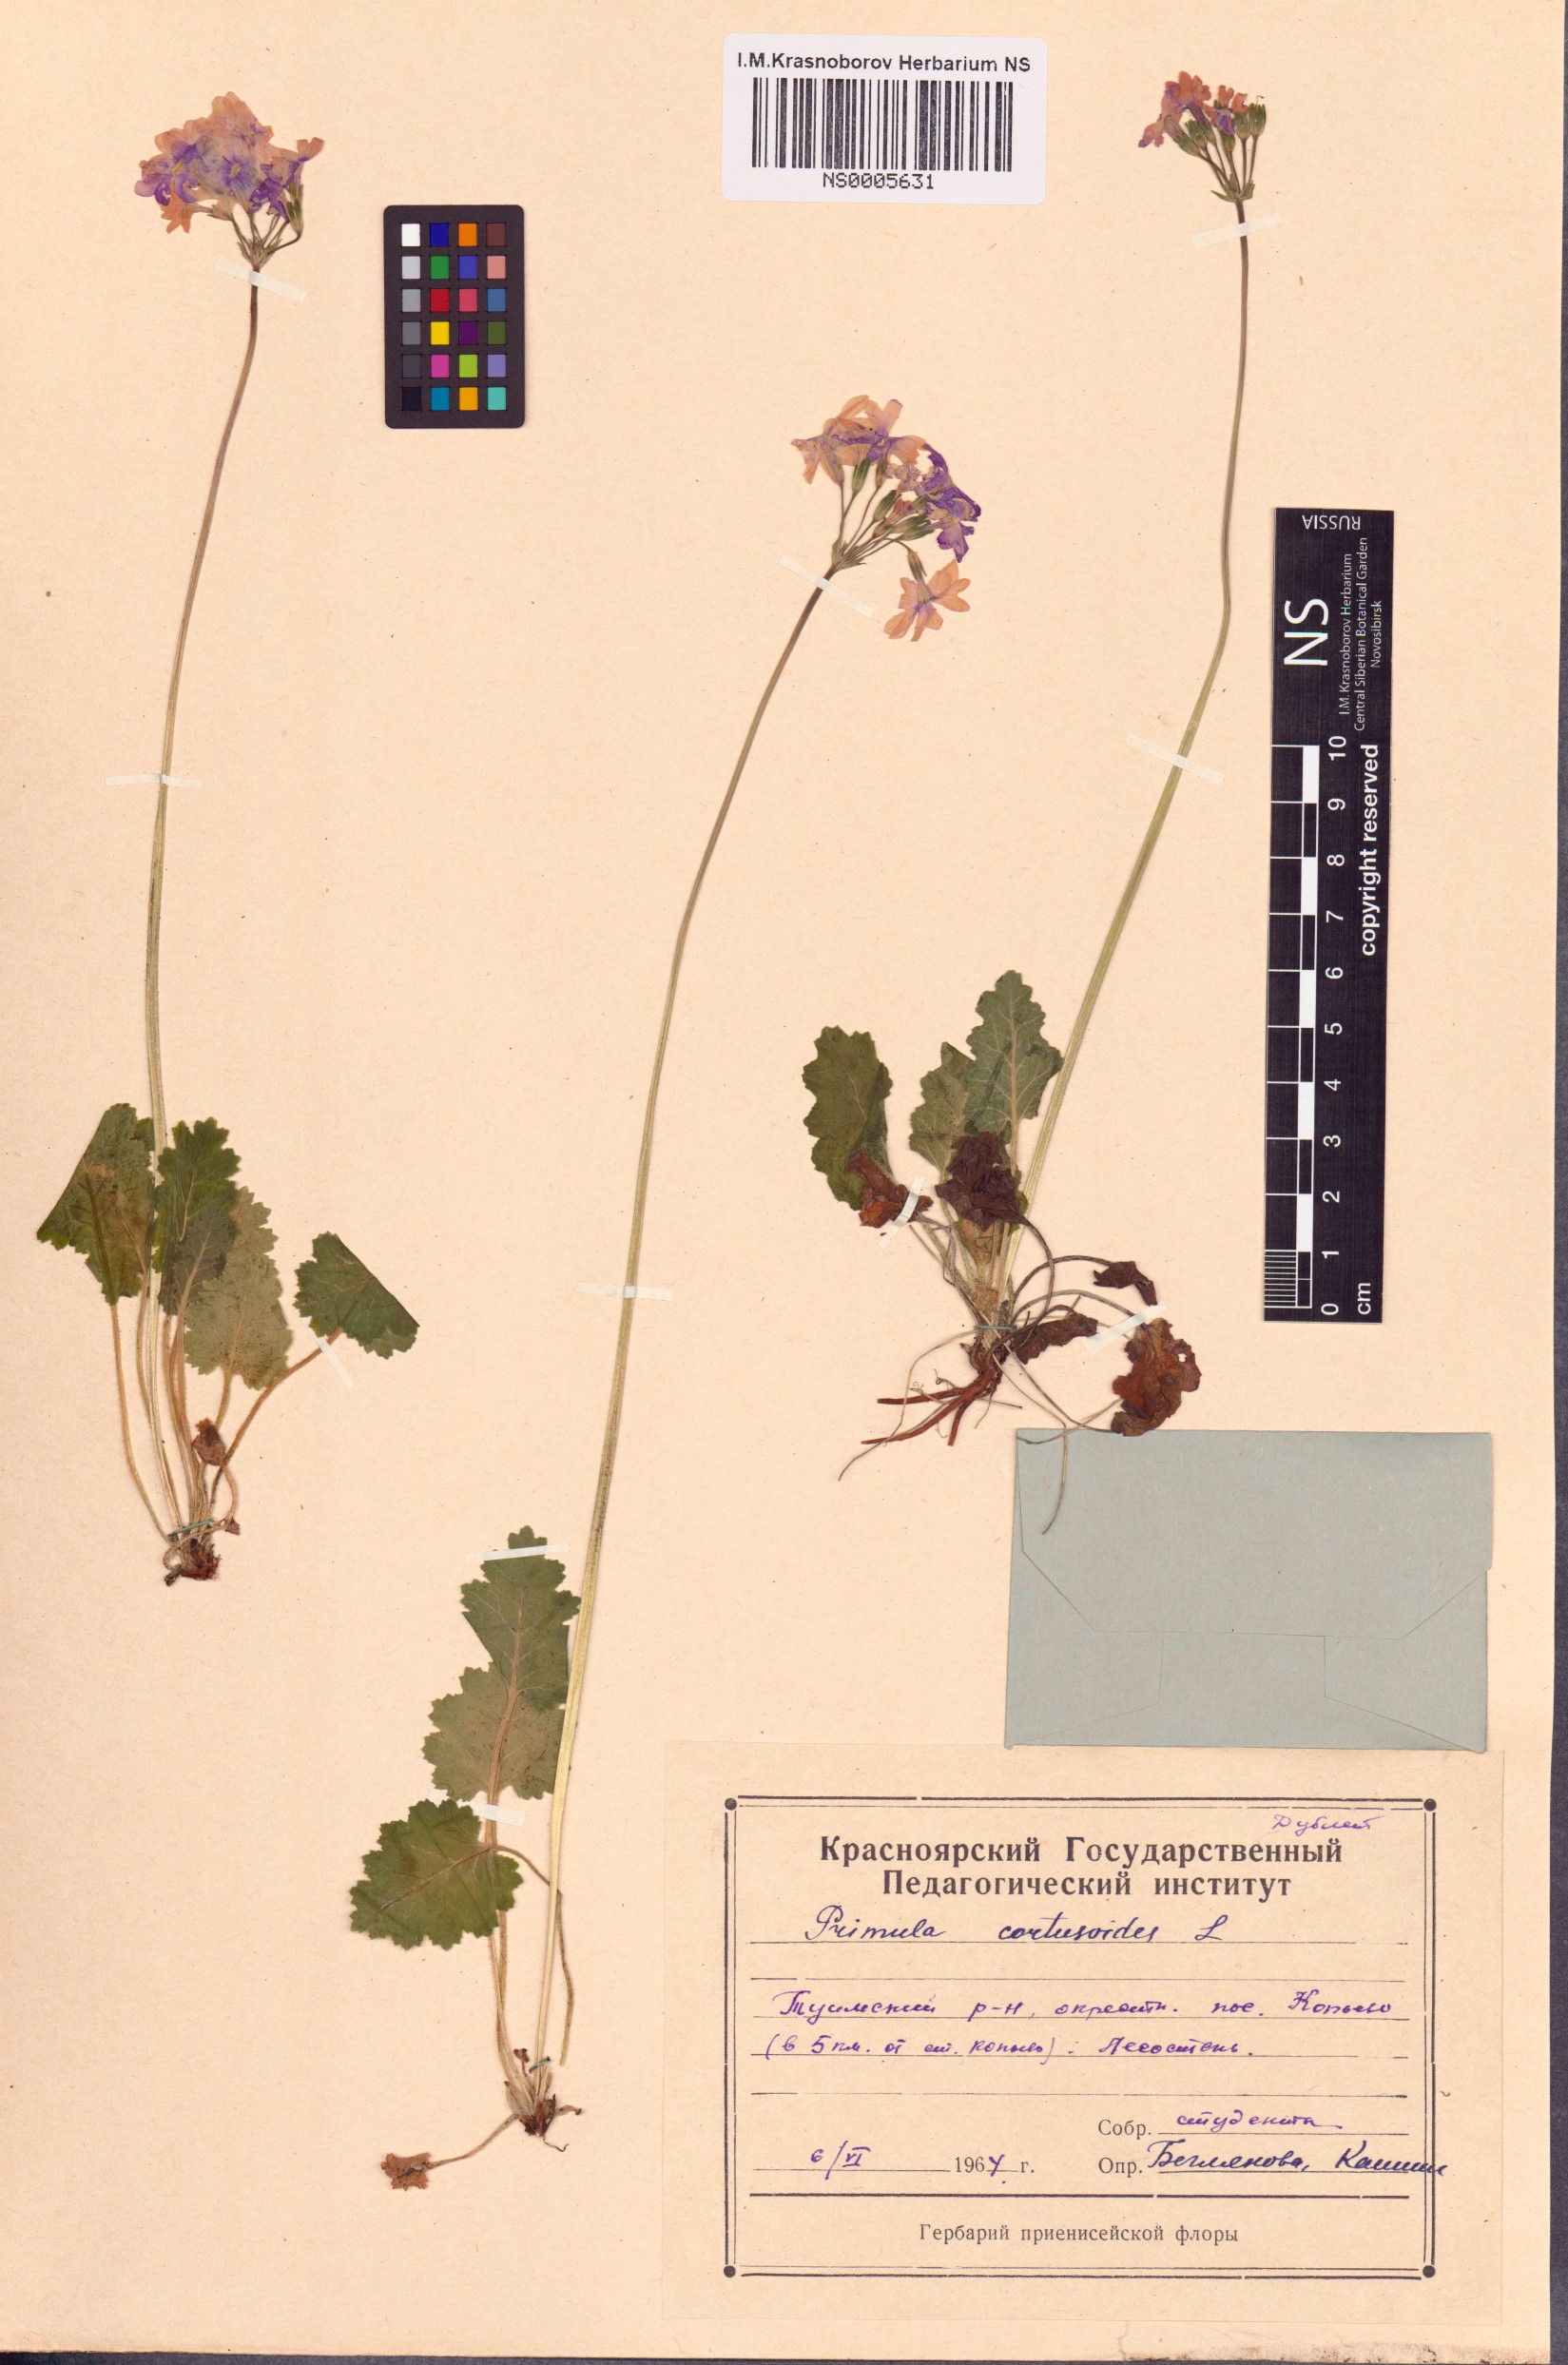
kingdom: Plantae
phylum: Tracheophyta
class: Magnoliopsida
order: Ericales
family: Primulaceae
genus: Primula
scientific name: Primula cortusoides
